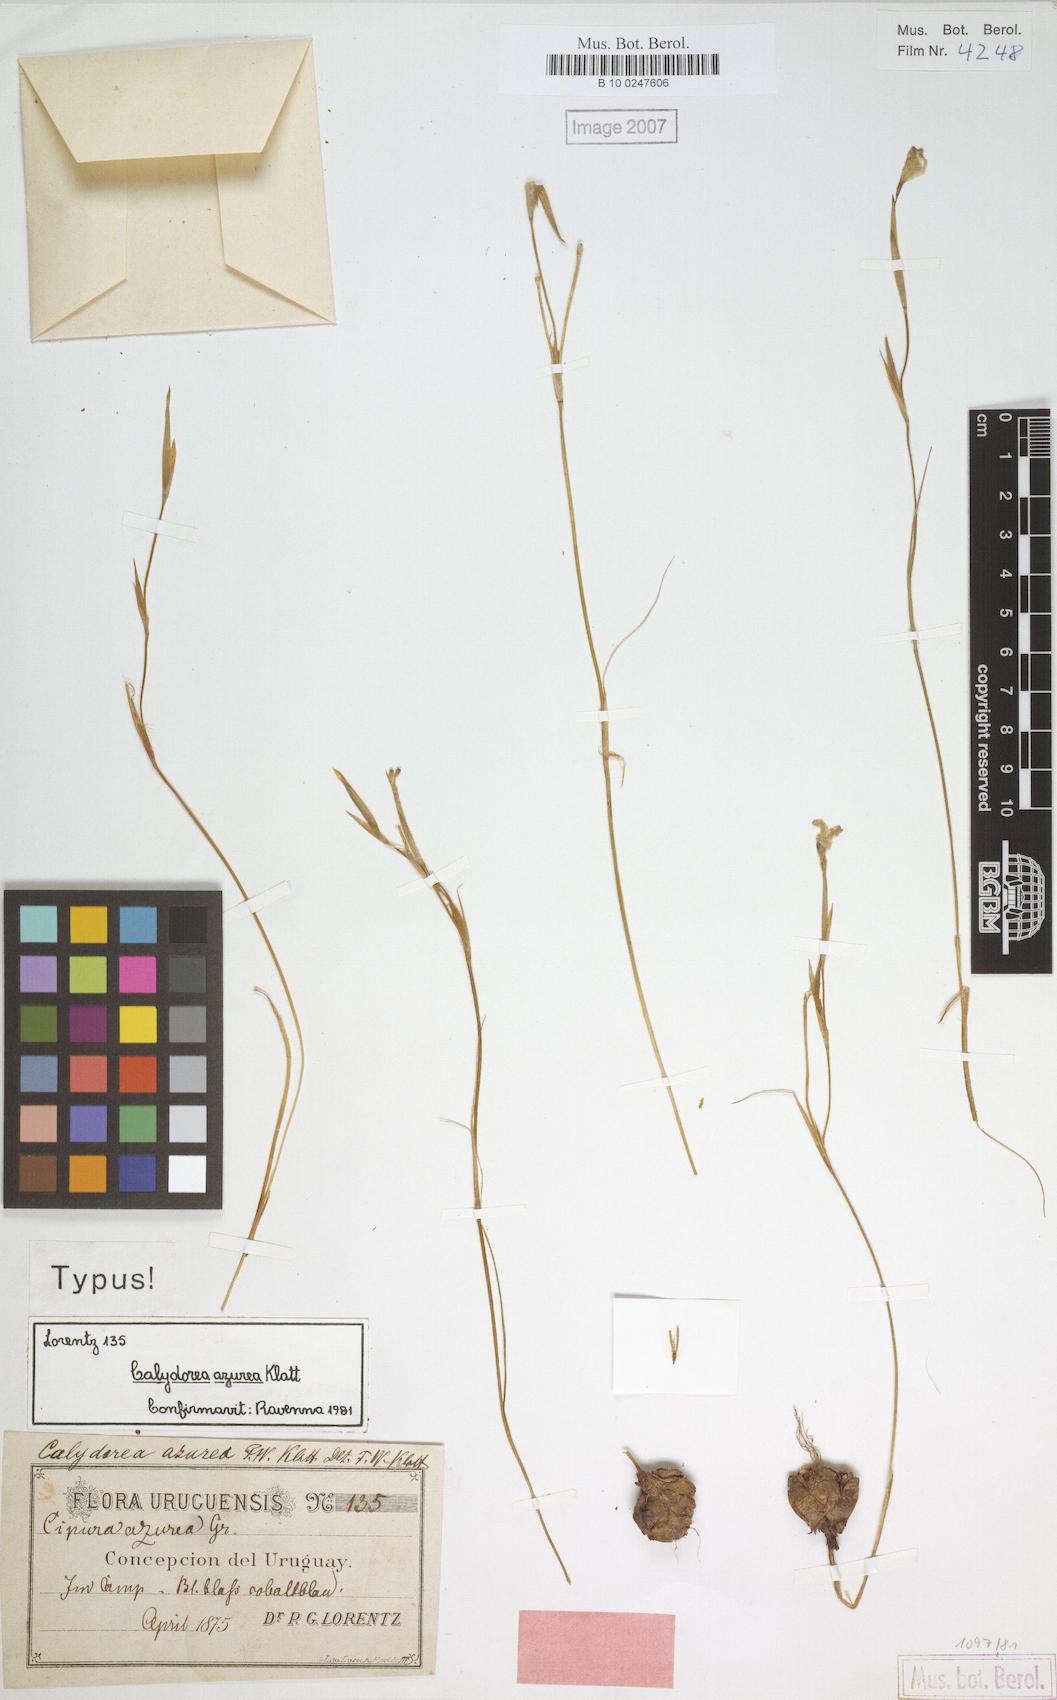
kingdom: Plantae
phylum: Tracheophyta
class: Liliopsida
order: Asparagales
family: Iridaceae
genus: Calydorea
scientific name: Calydorea azurea
